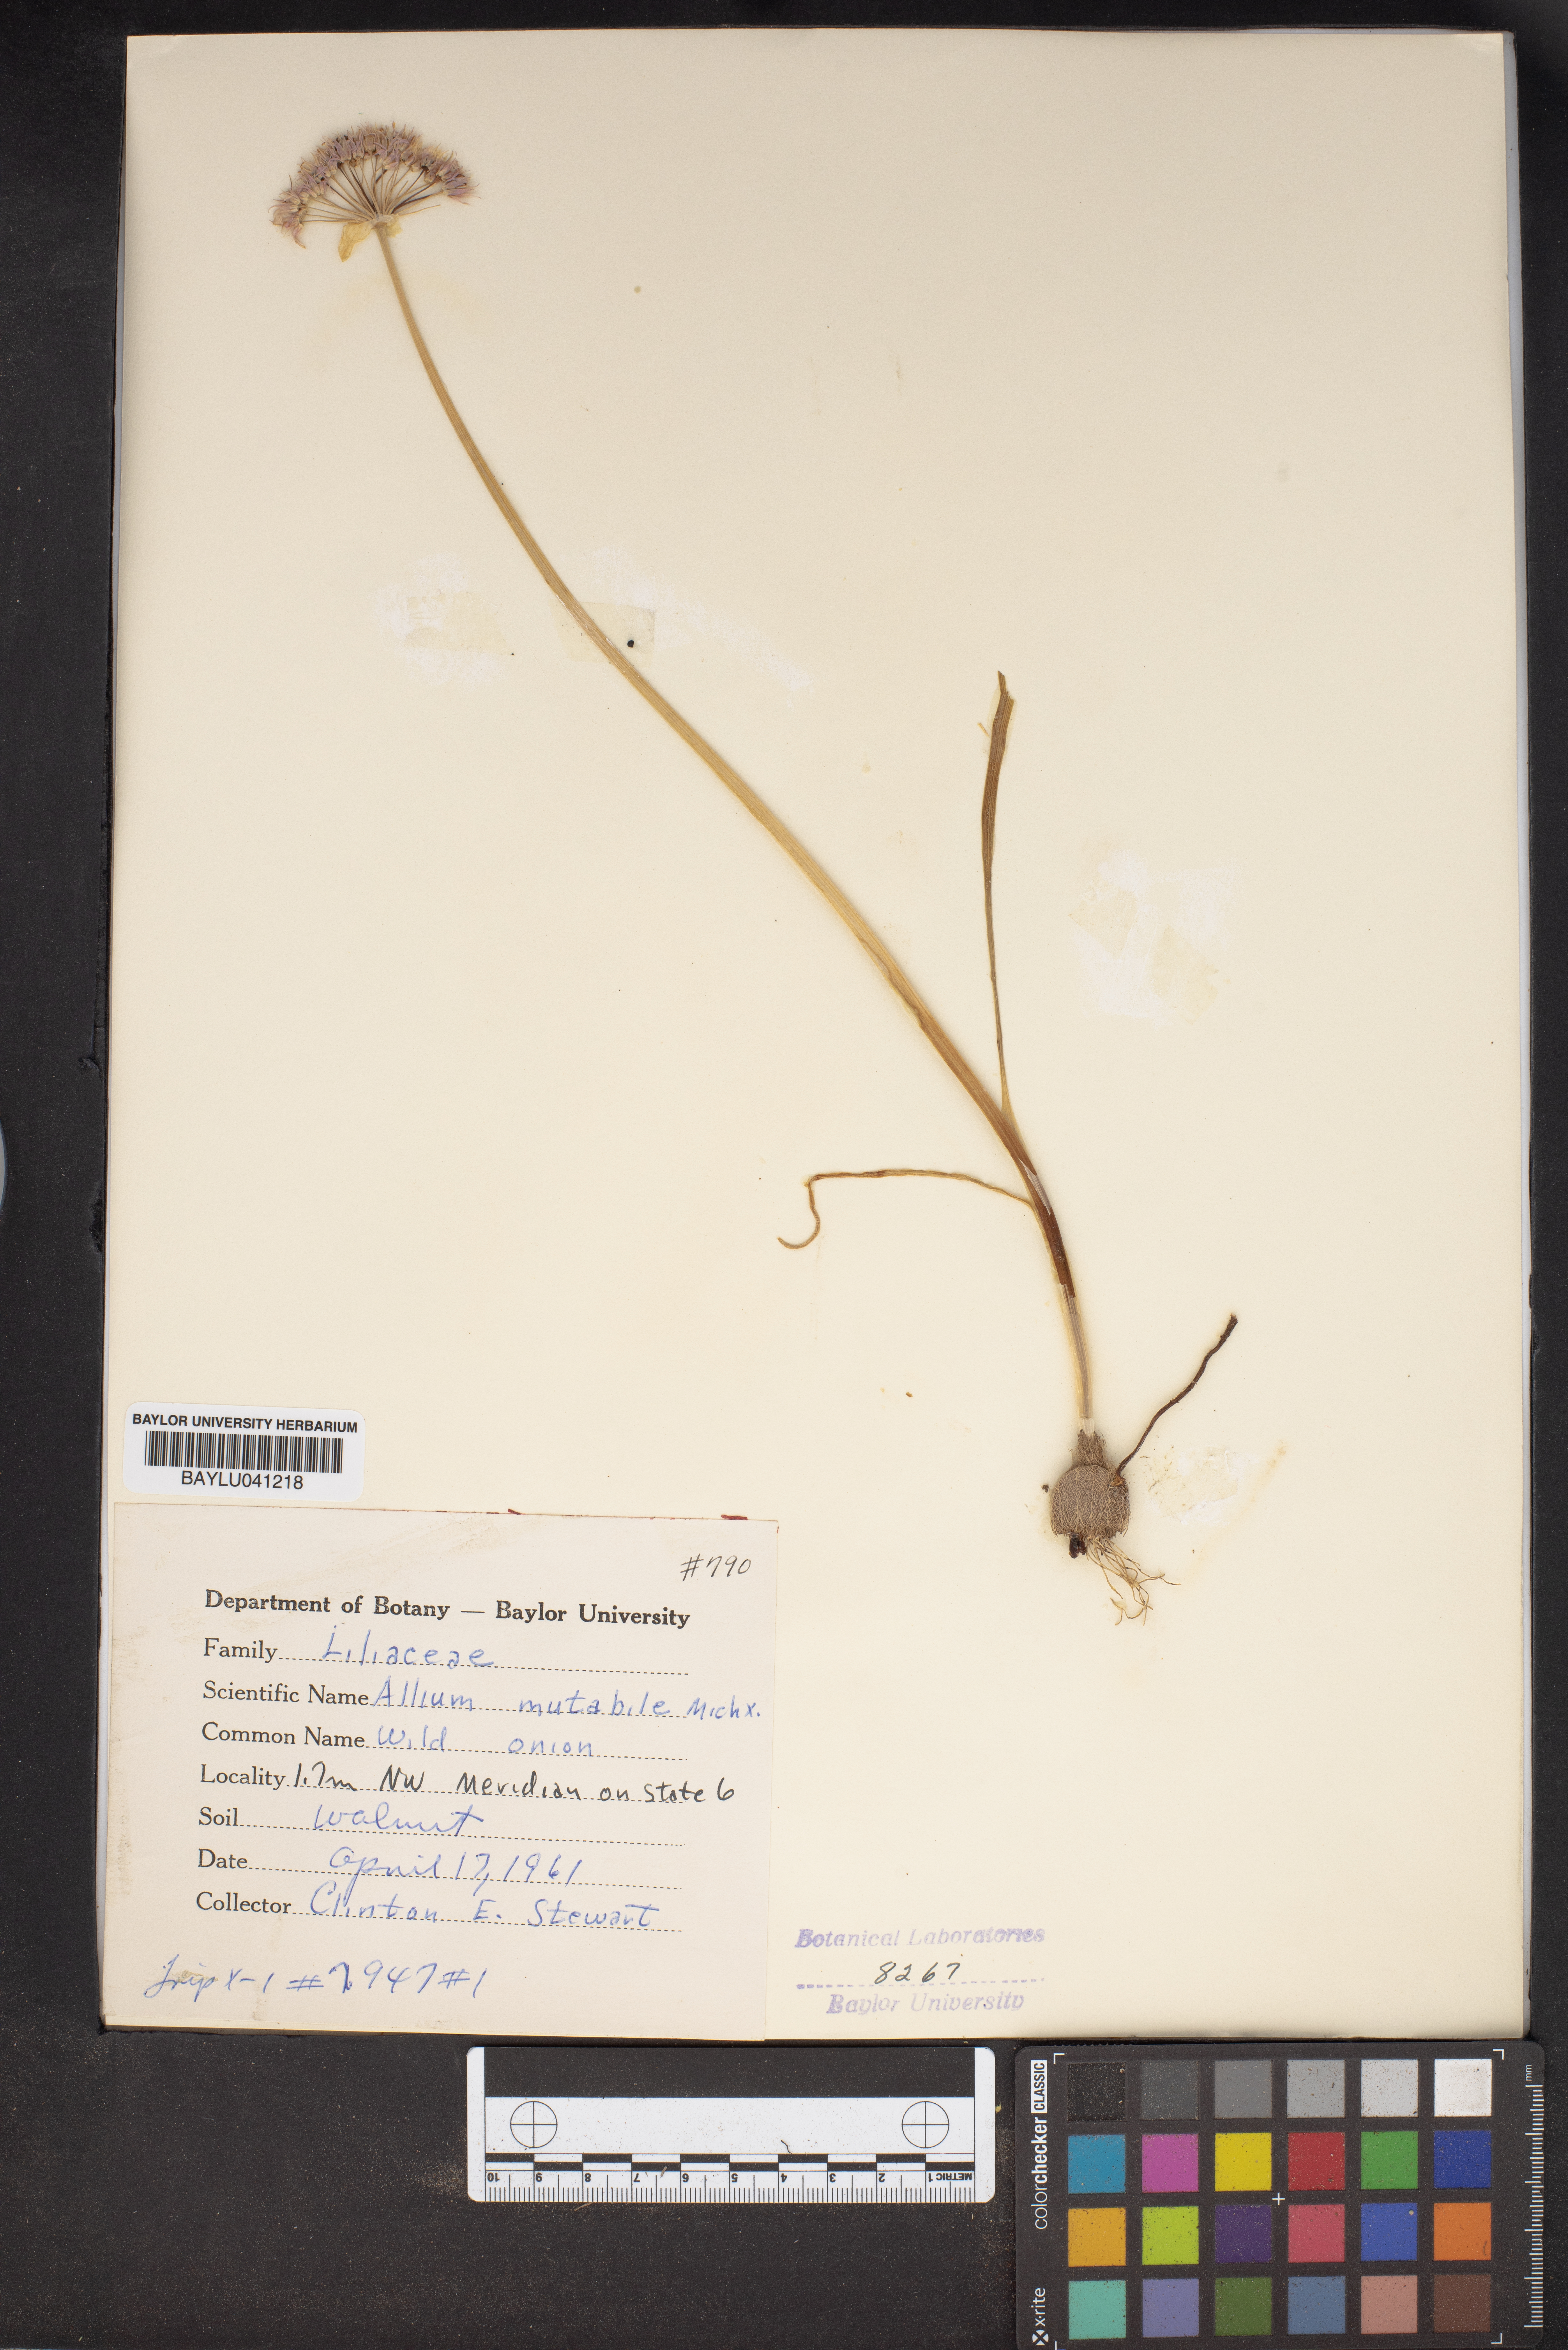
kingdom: Plantae
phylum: Tracheophyta
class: Liliopsida
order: Asparagales
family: Amaryllidaceae
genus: Allium
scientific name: Allium canadense
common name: Meadow garlic
